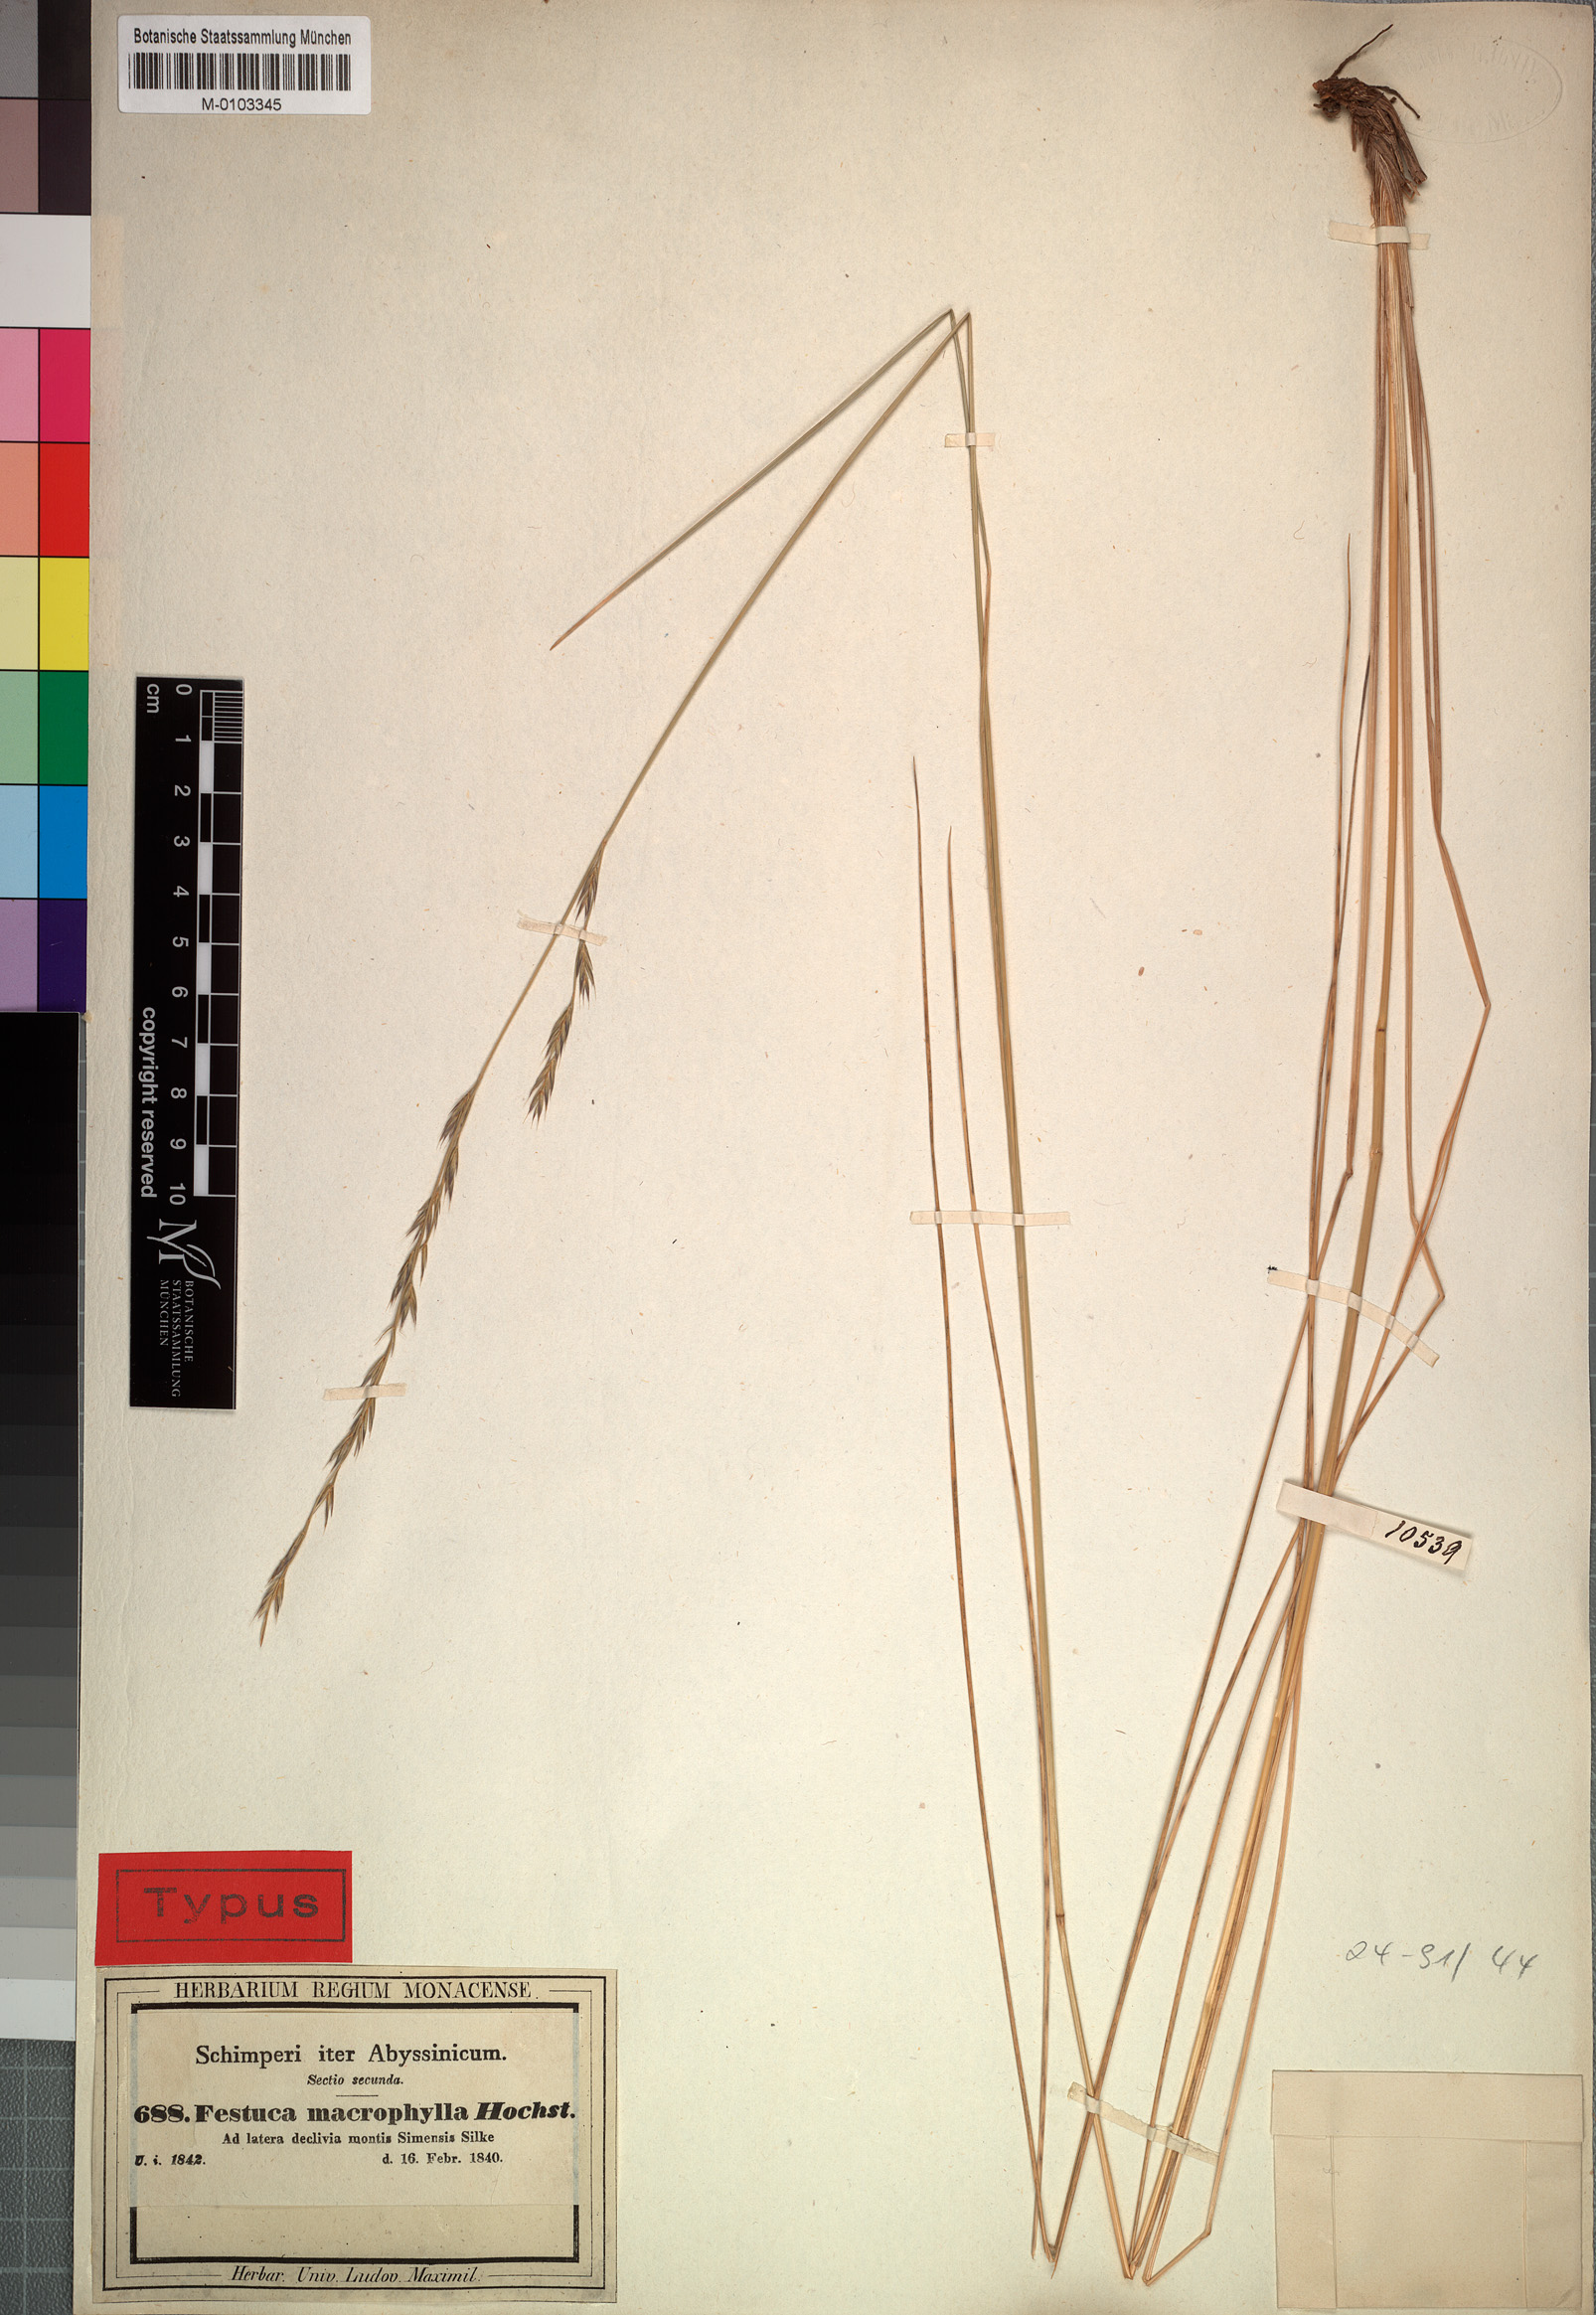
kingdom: Plantae
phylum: Tracheophyta
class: Liliopsida
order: Poales
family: Poaceae
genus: Festuca
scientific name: Festuca macrophylla
